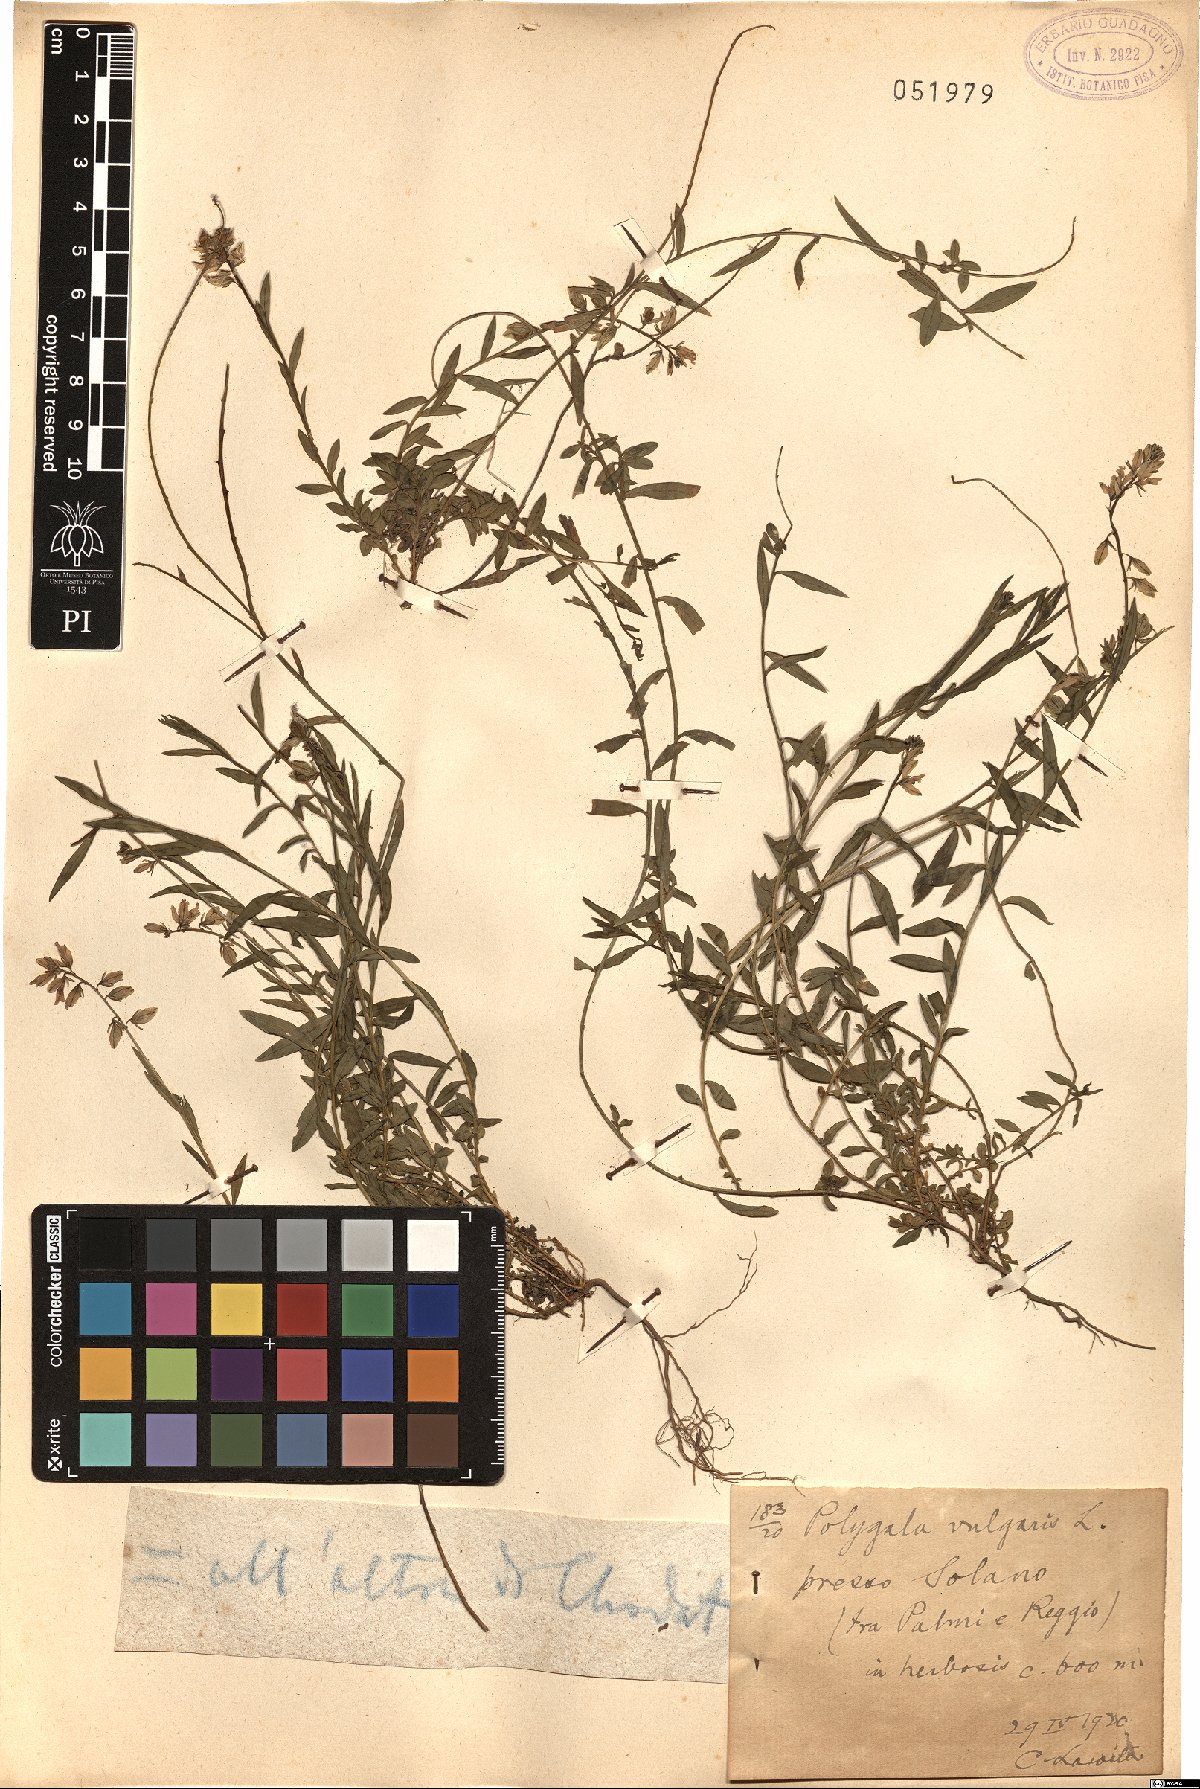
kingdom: Plantae
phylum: Tracheophyta
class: Magnoliopsida
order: Fabales
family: Polygalaceae
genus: Polygala
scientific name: Polygala vulgaris
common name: Common milkwort
